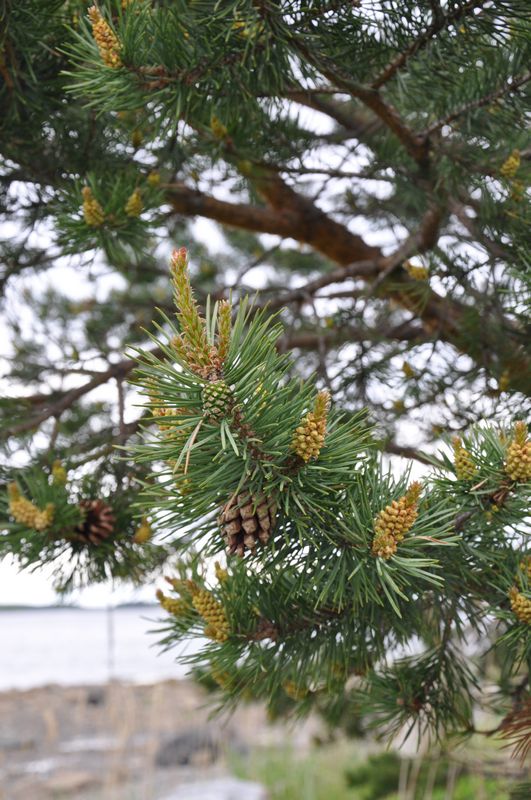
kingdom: Plantae
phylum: Tracheophyta
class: Pinopsida
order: Pinales
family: Pinaceae
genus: Pinus
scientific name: Pinus sylvestris
